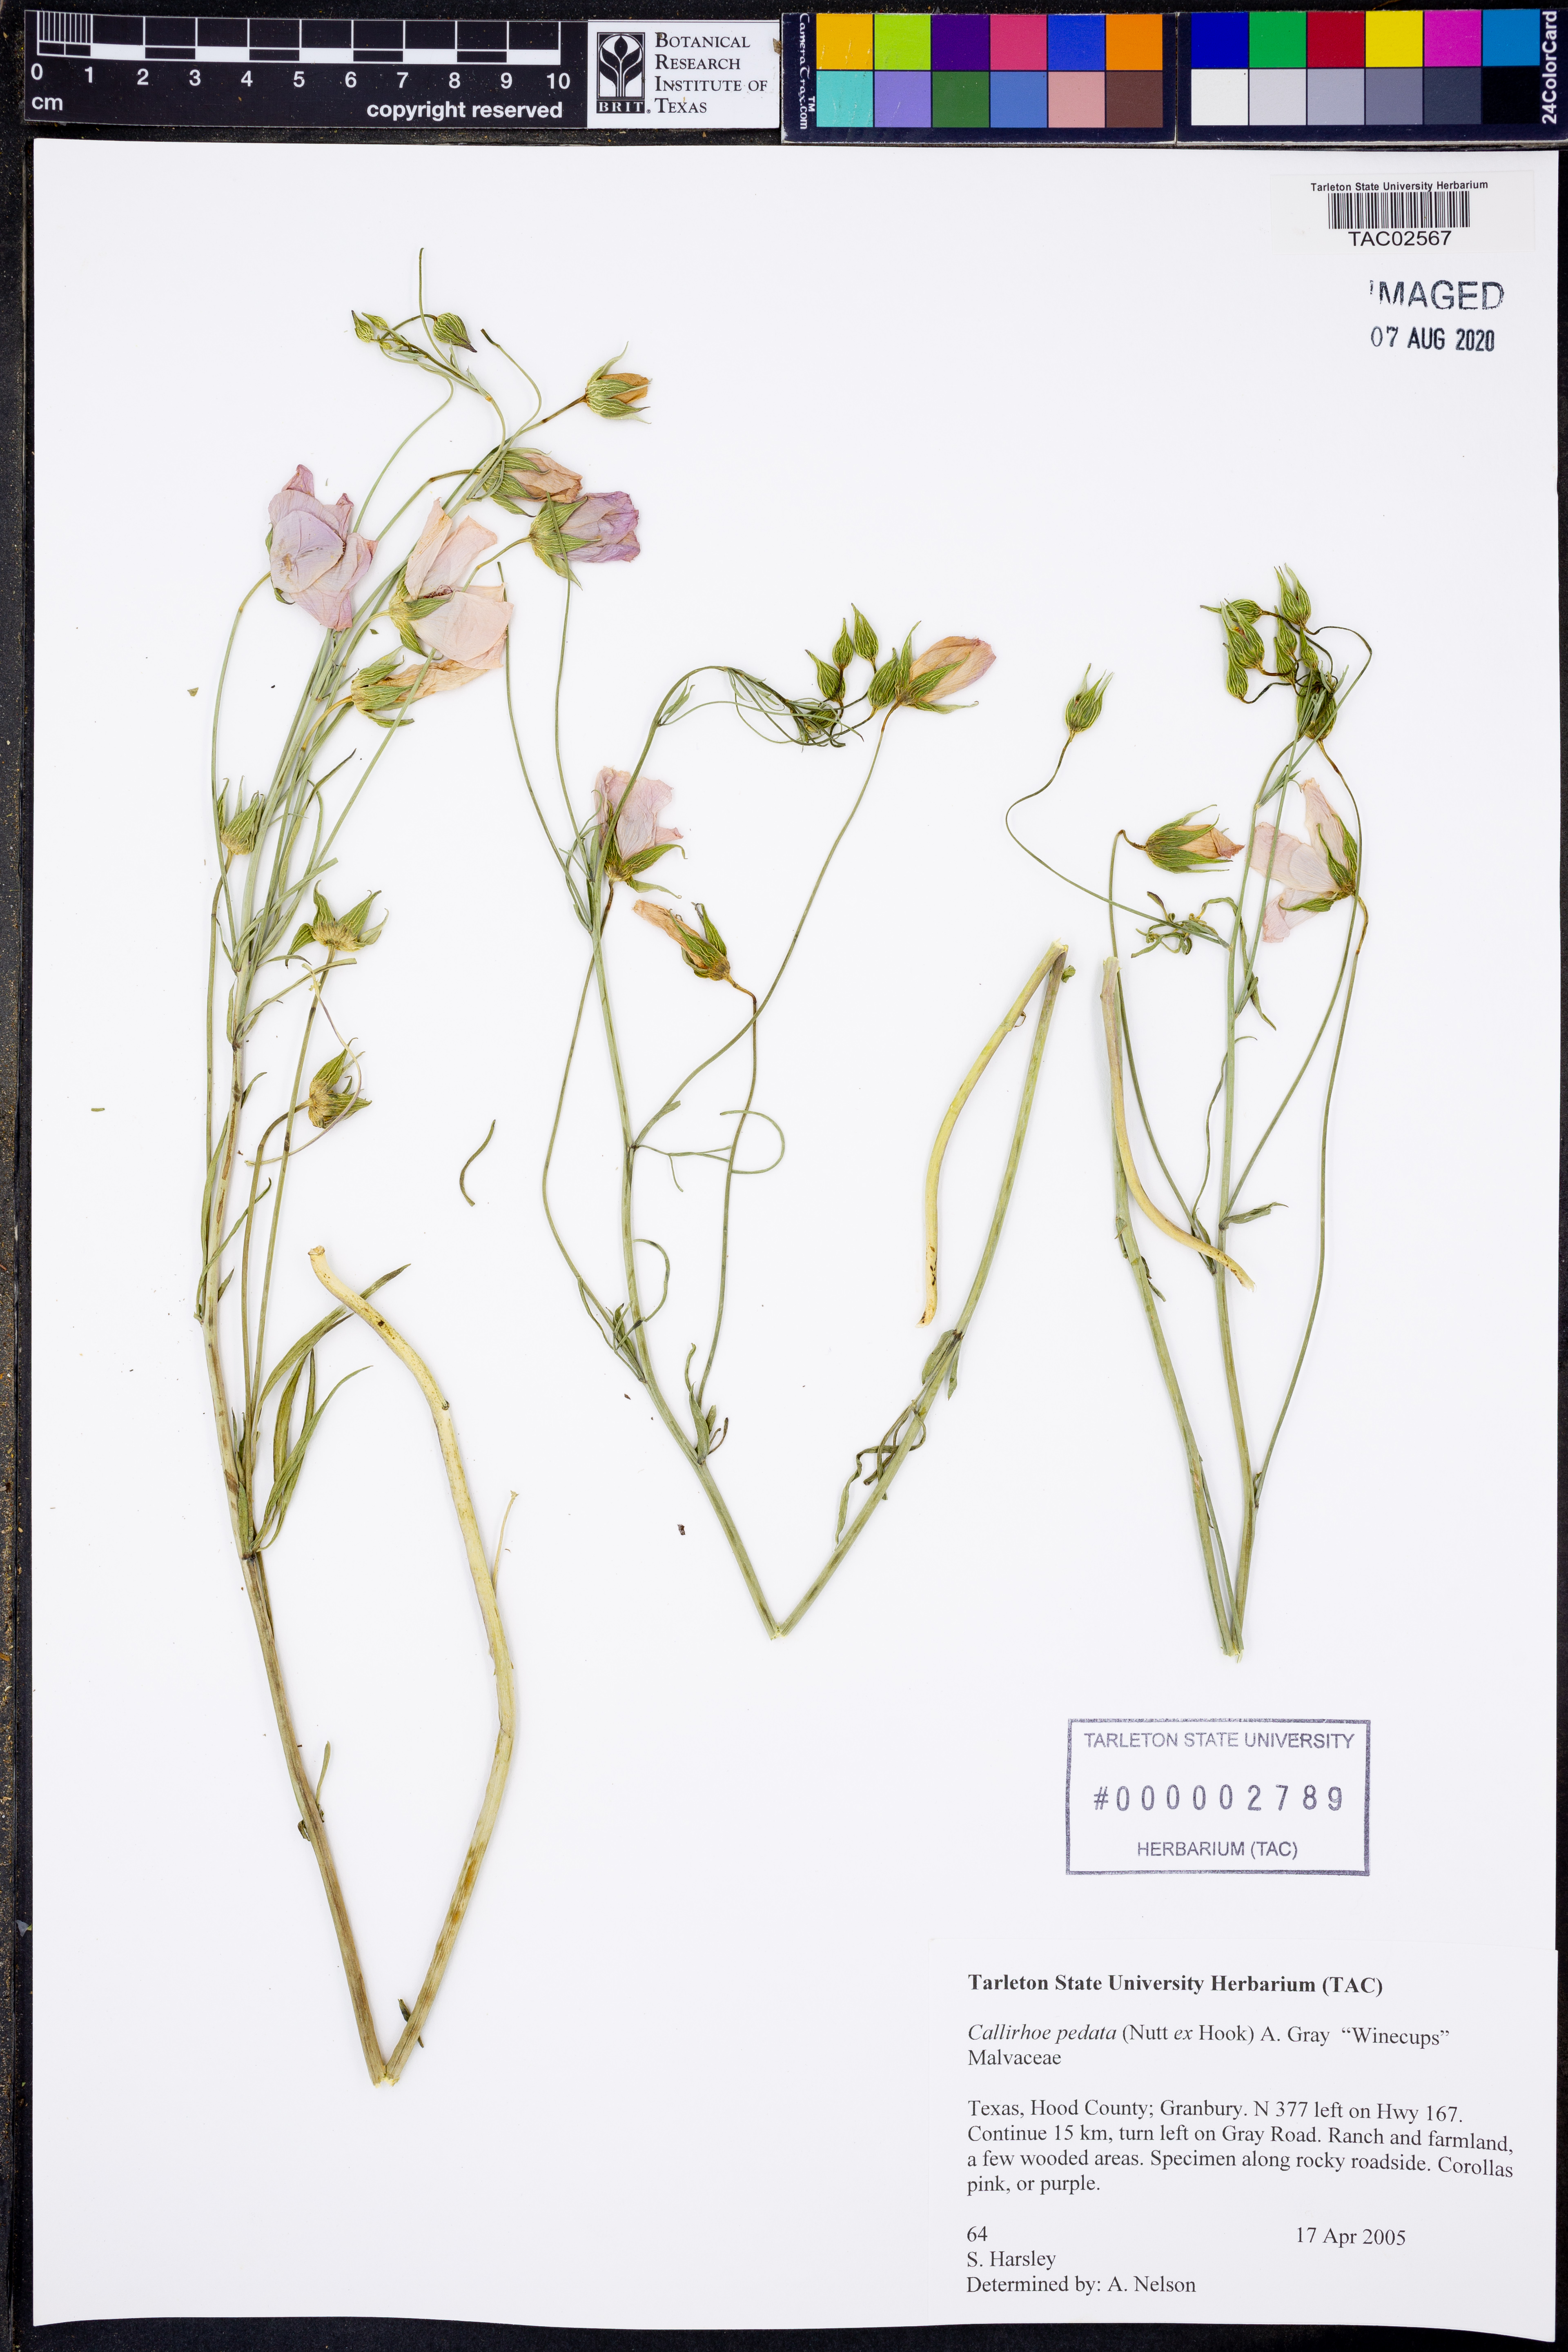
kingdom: Plantae
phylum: Tracheophyta
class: Magnoliopsida
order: Malvales
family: Malvaceae
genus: Callirhoe
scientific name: Callirhoe pedata
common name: Finger poppy-mallow
